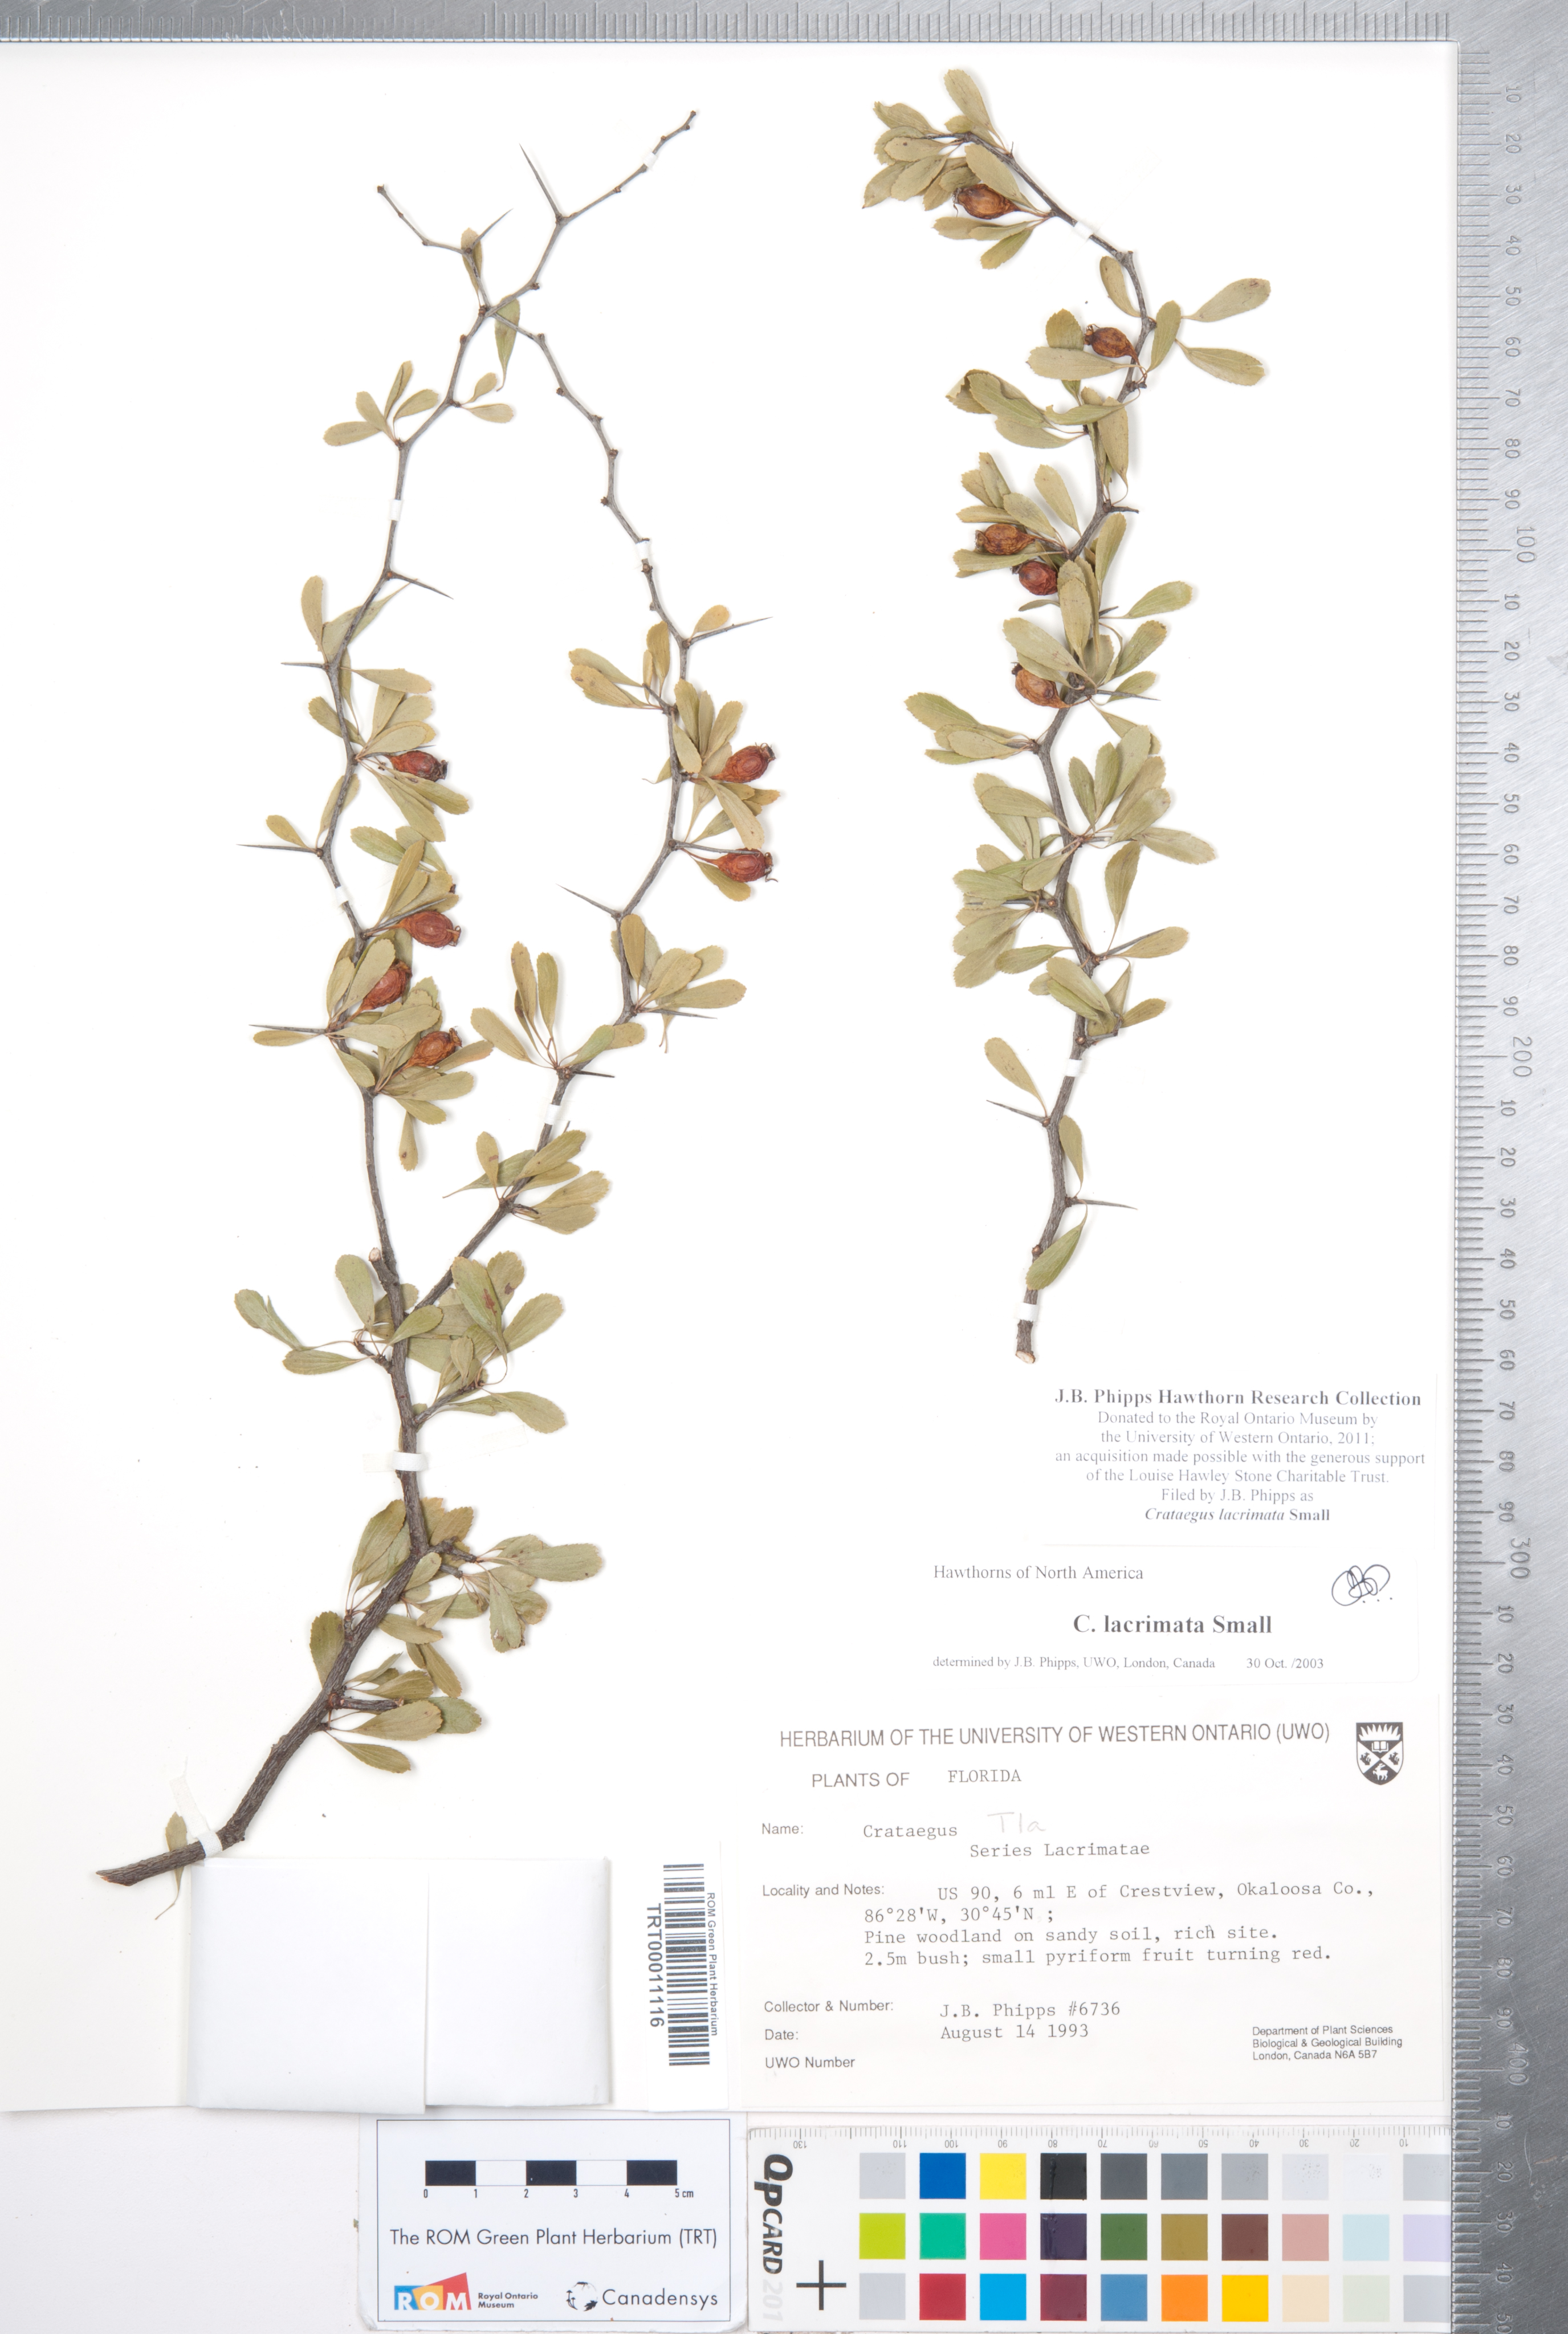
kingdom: Plantae
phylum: Tracheophyta
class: Magnoliopsida
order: Rosales
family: Rosaceae
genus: Crataegus
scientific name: Crataegus lacrimata
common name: Weeping hawthorn
